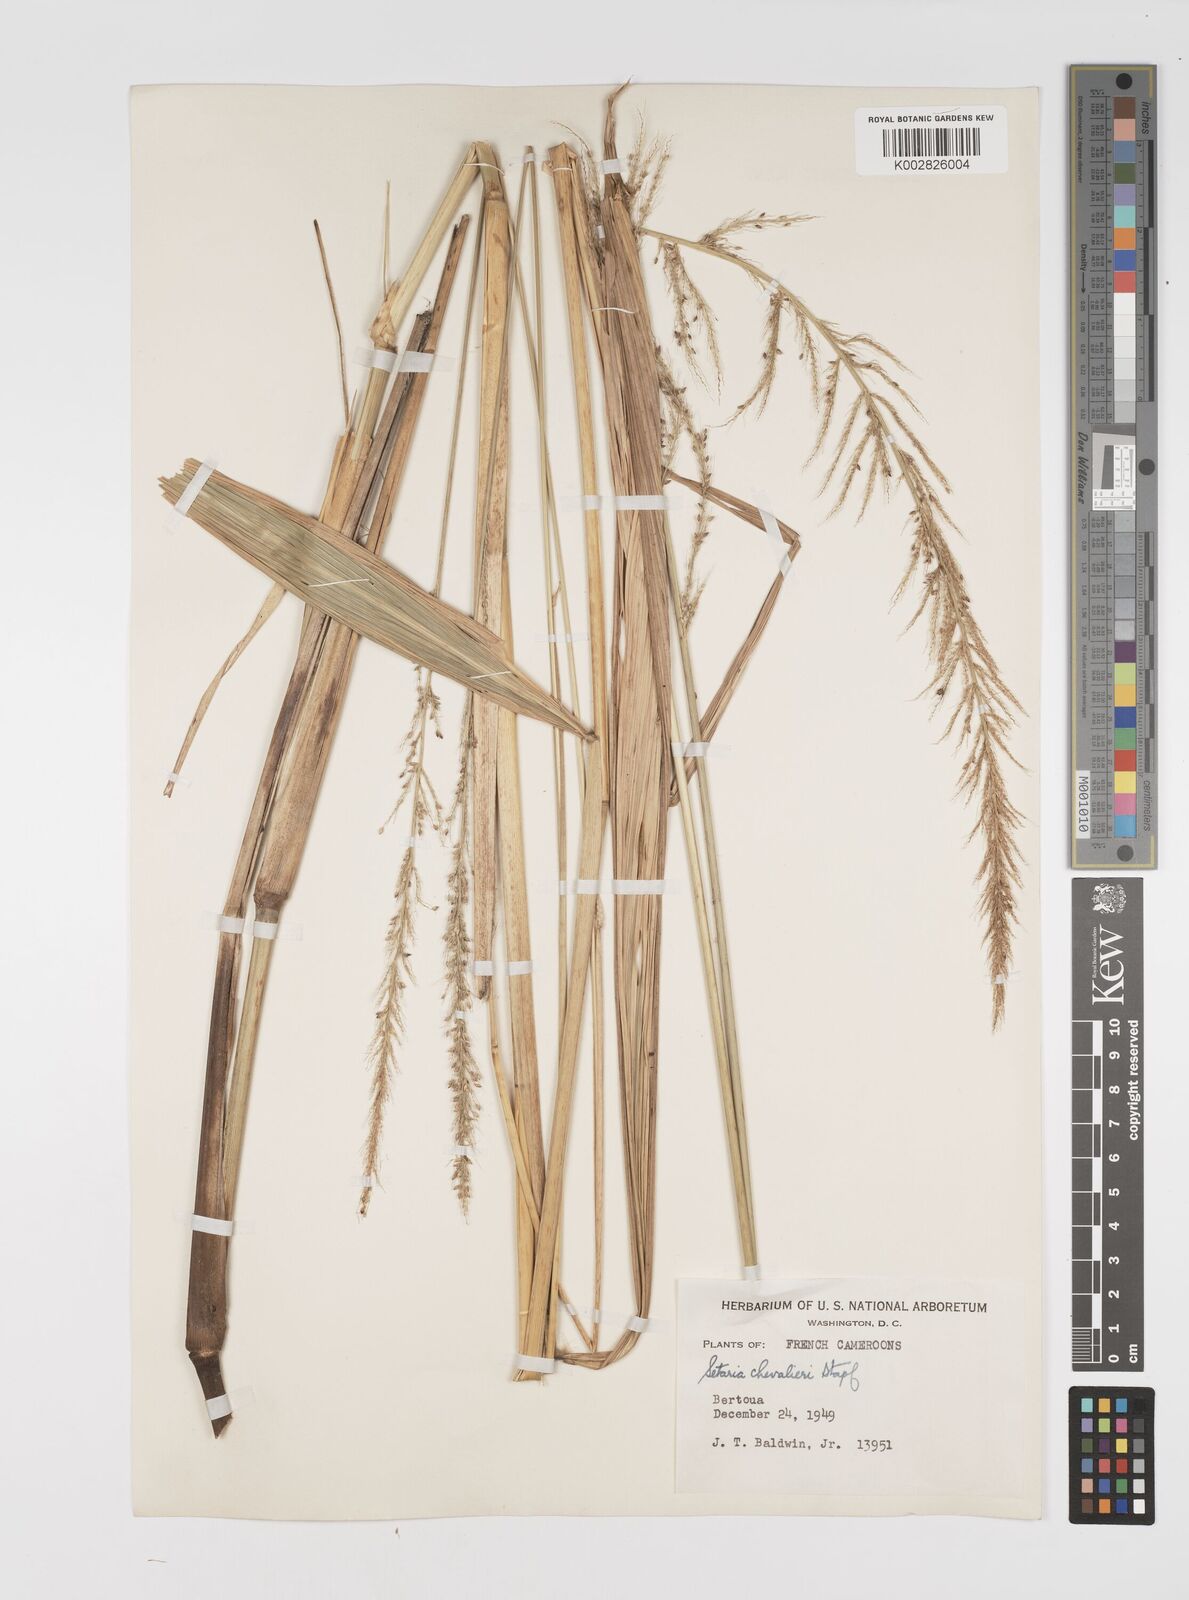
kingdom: Plantae
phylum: Tracheophyta
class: Liliopsida
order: Poales
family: Poaceae
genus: Setaria
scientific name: Setaria megaphylla
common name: Bigleaf bristlegrass
